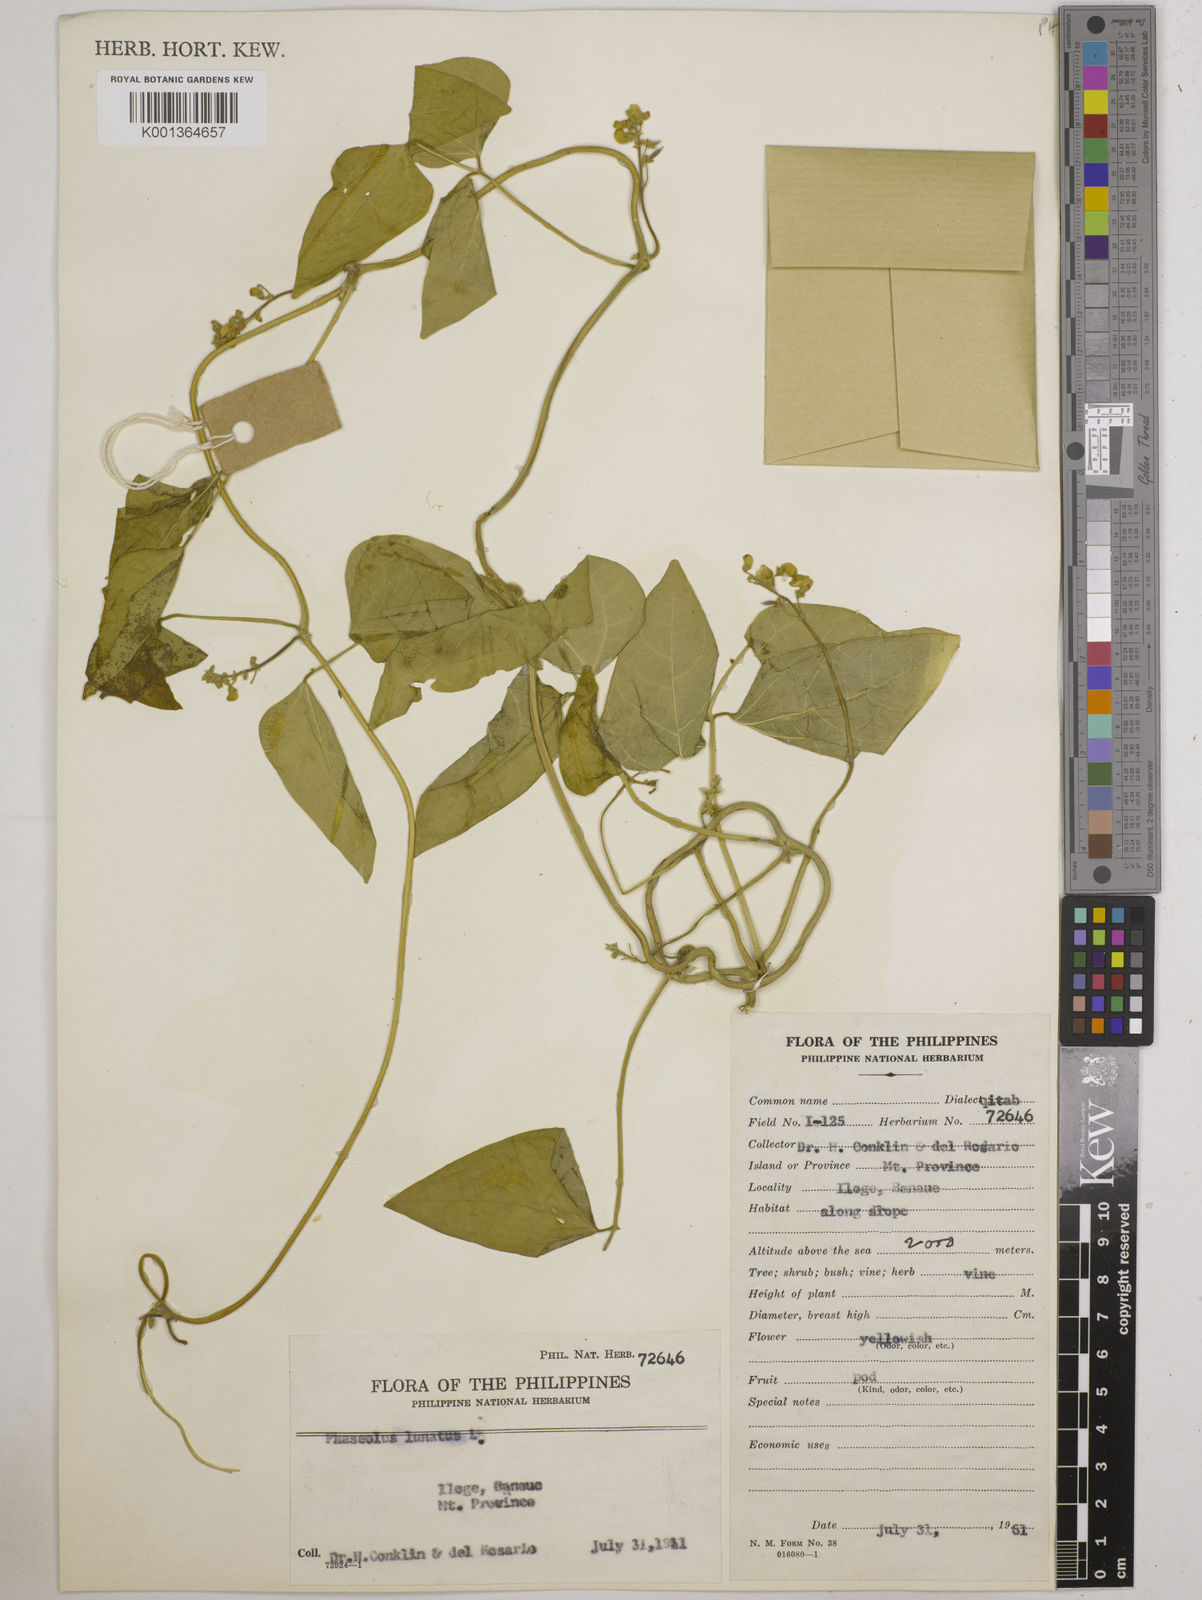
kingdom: Plantae
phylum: Tracheophyta
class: Magnoliopsida
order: Fabales
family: Fabaceae
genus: Phaseolus
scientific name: Phaseolus lunatus
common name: Sieva bean
